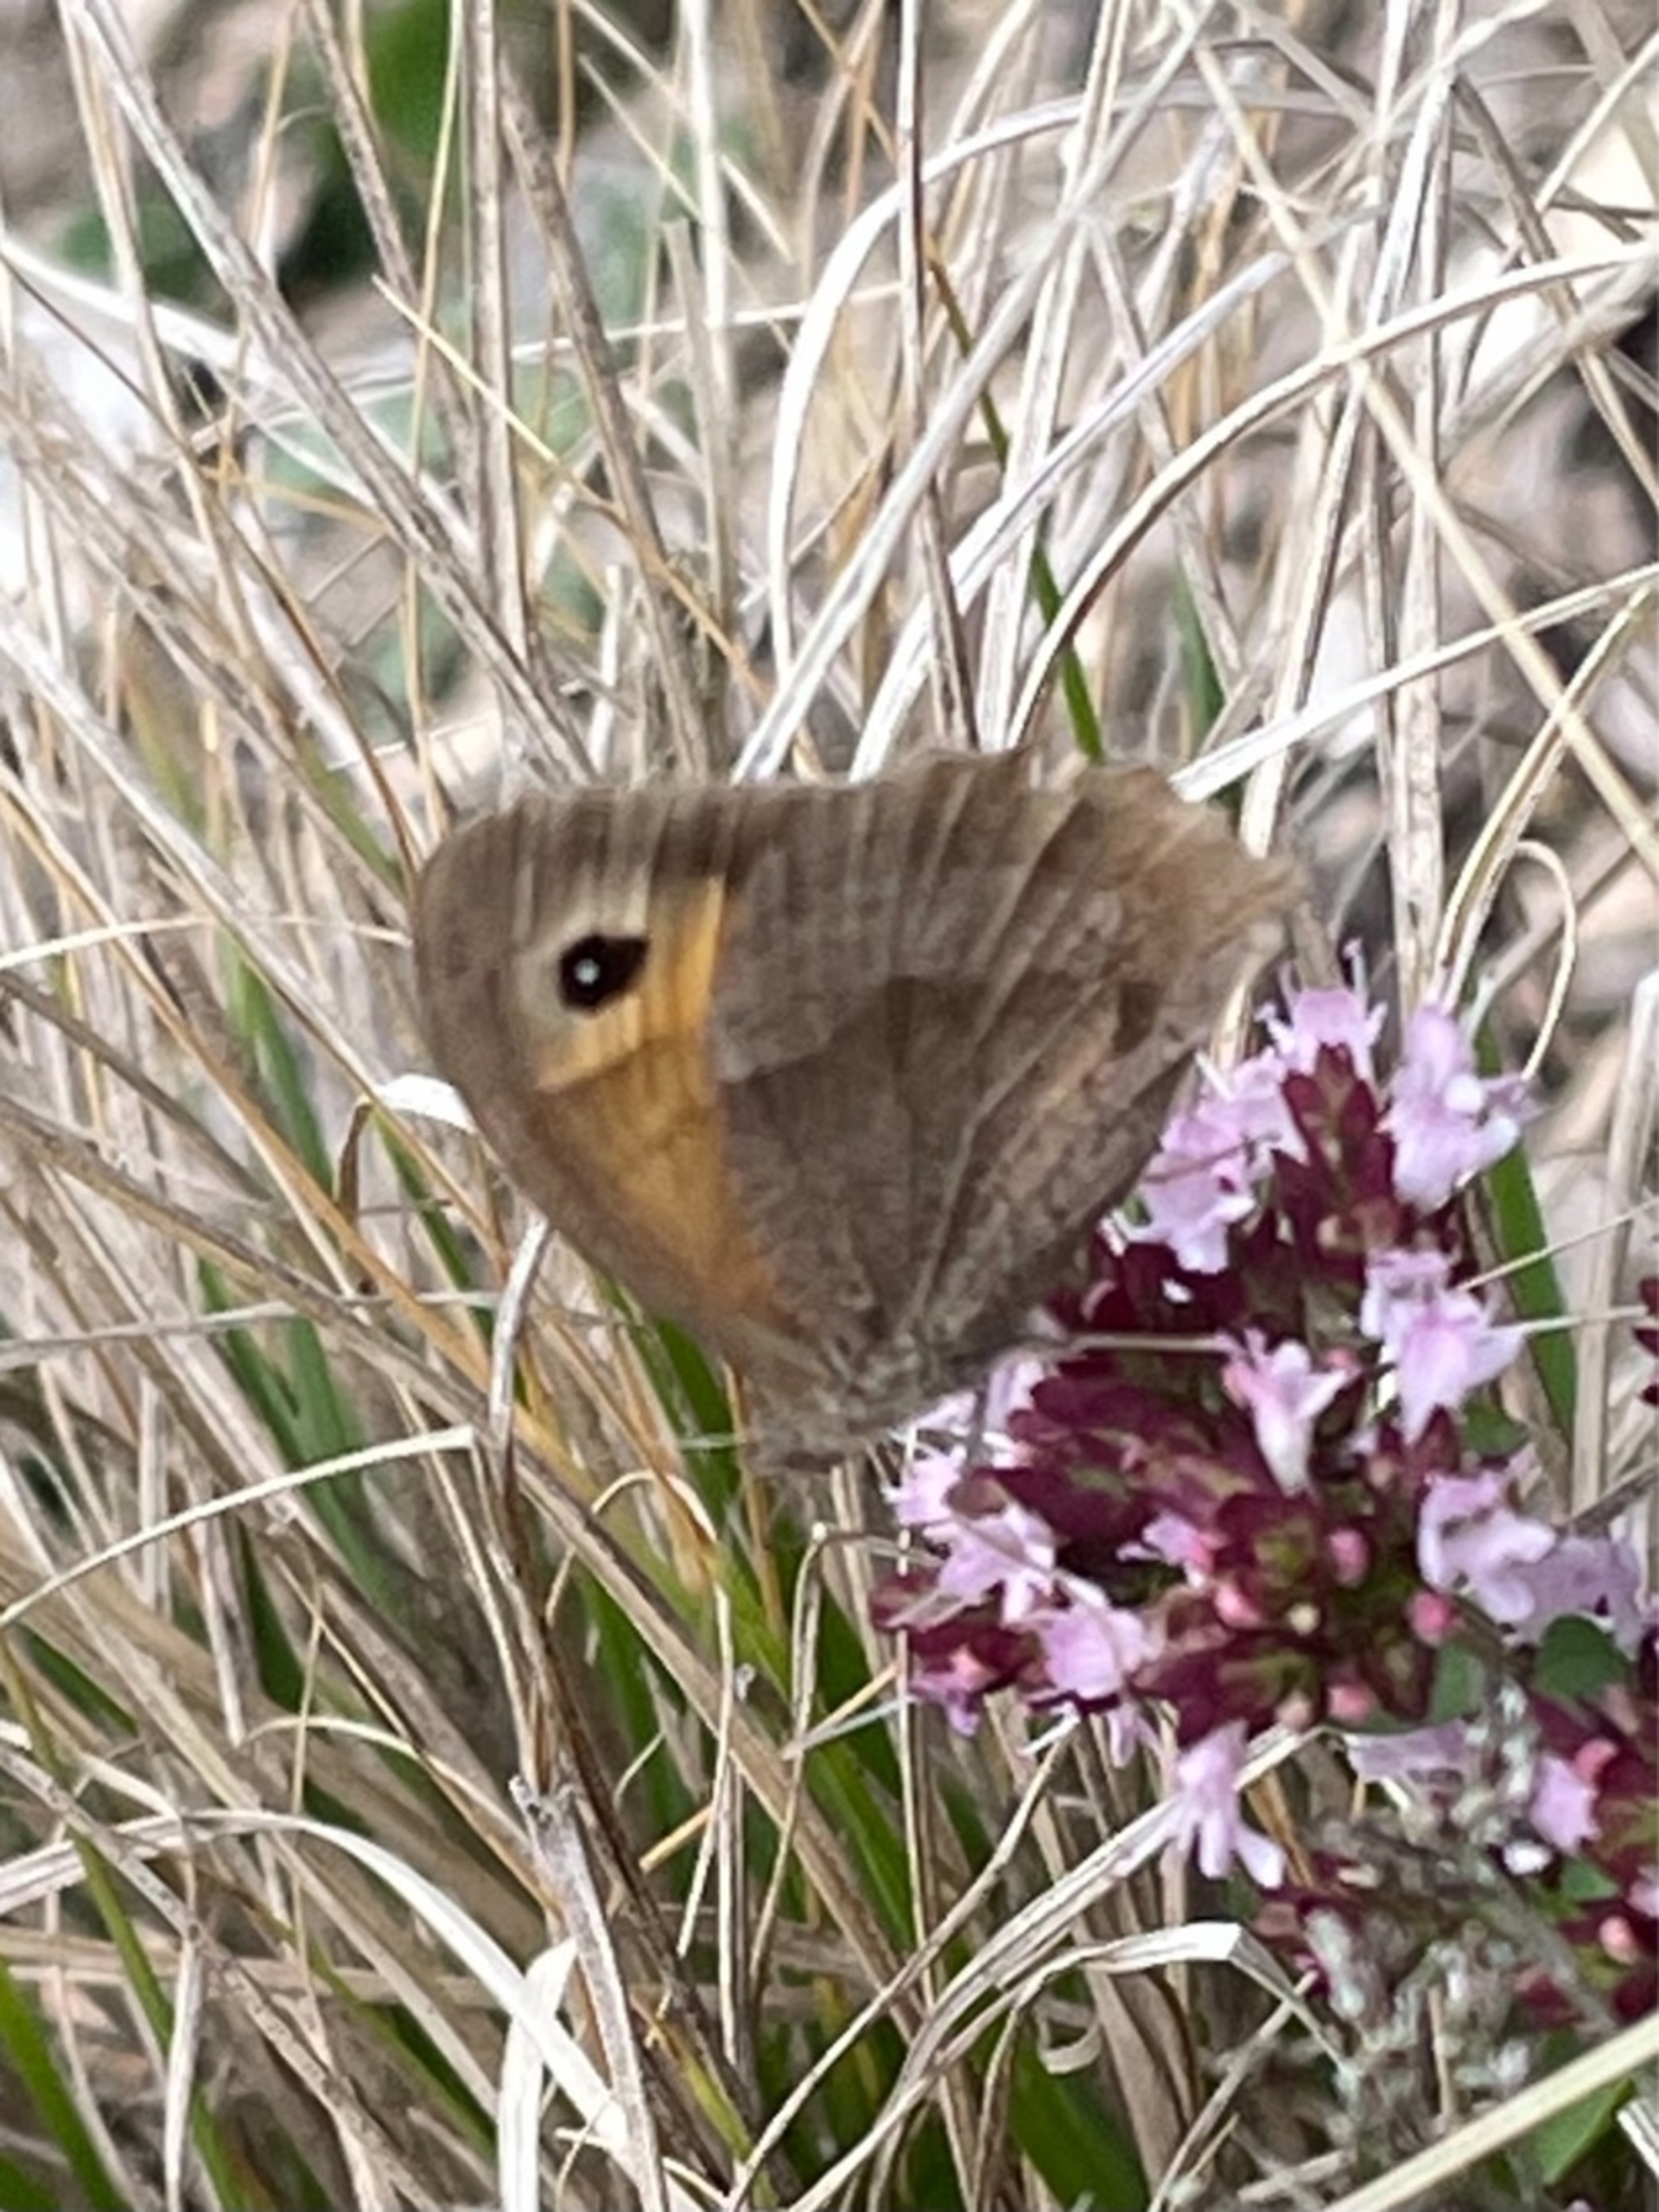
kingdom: Animalia
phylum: Arthropoda
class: Insecta
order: Lepidoptera
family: Nymphalidae
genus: Maniola
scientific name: Maniola jurtina
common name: Græsrandøje
